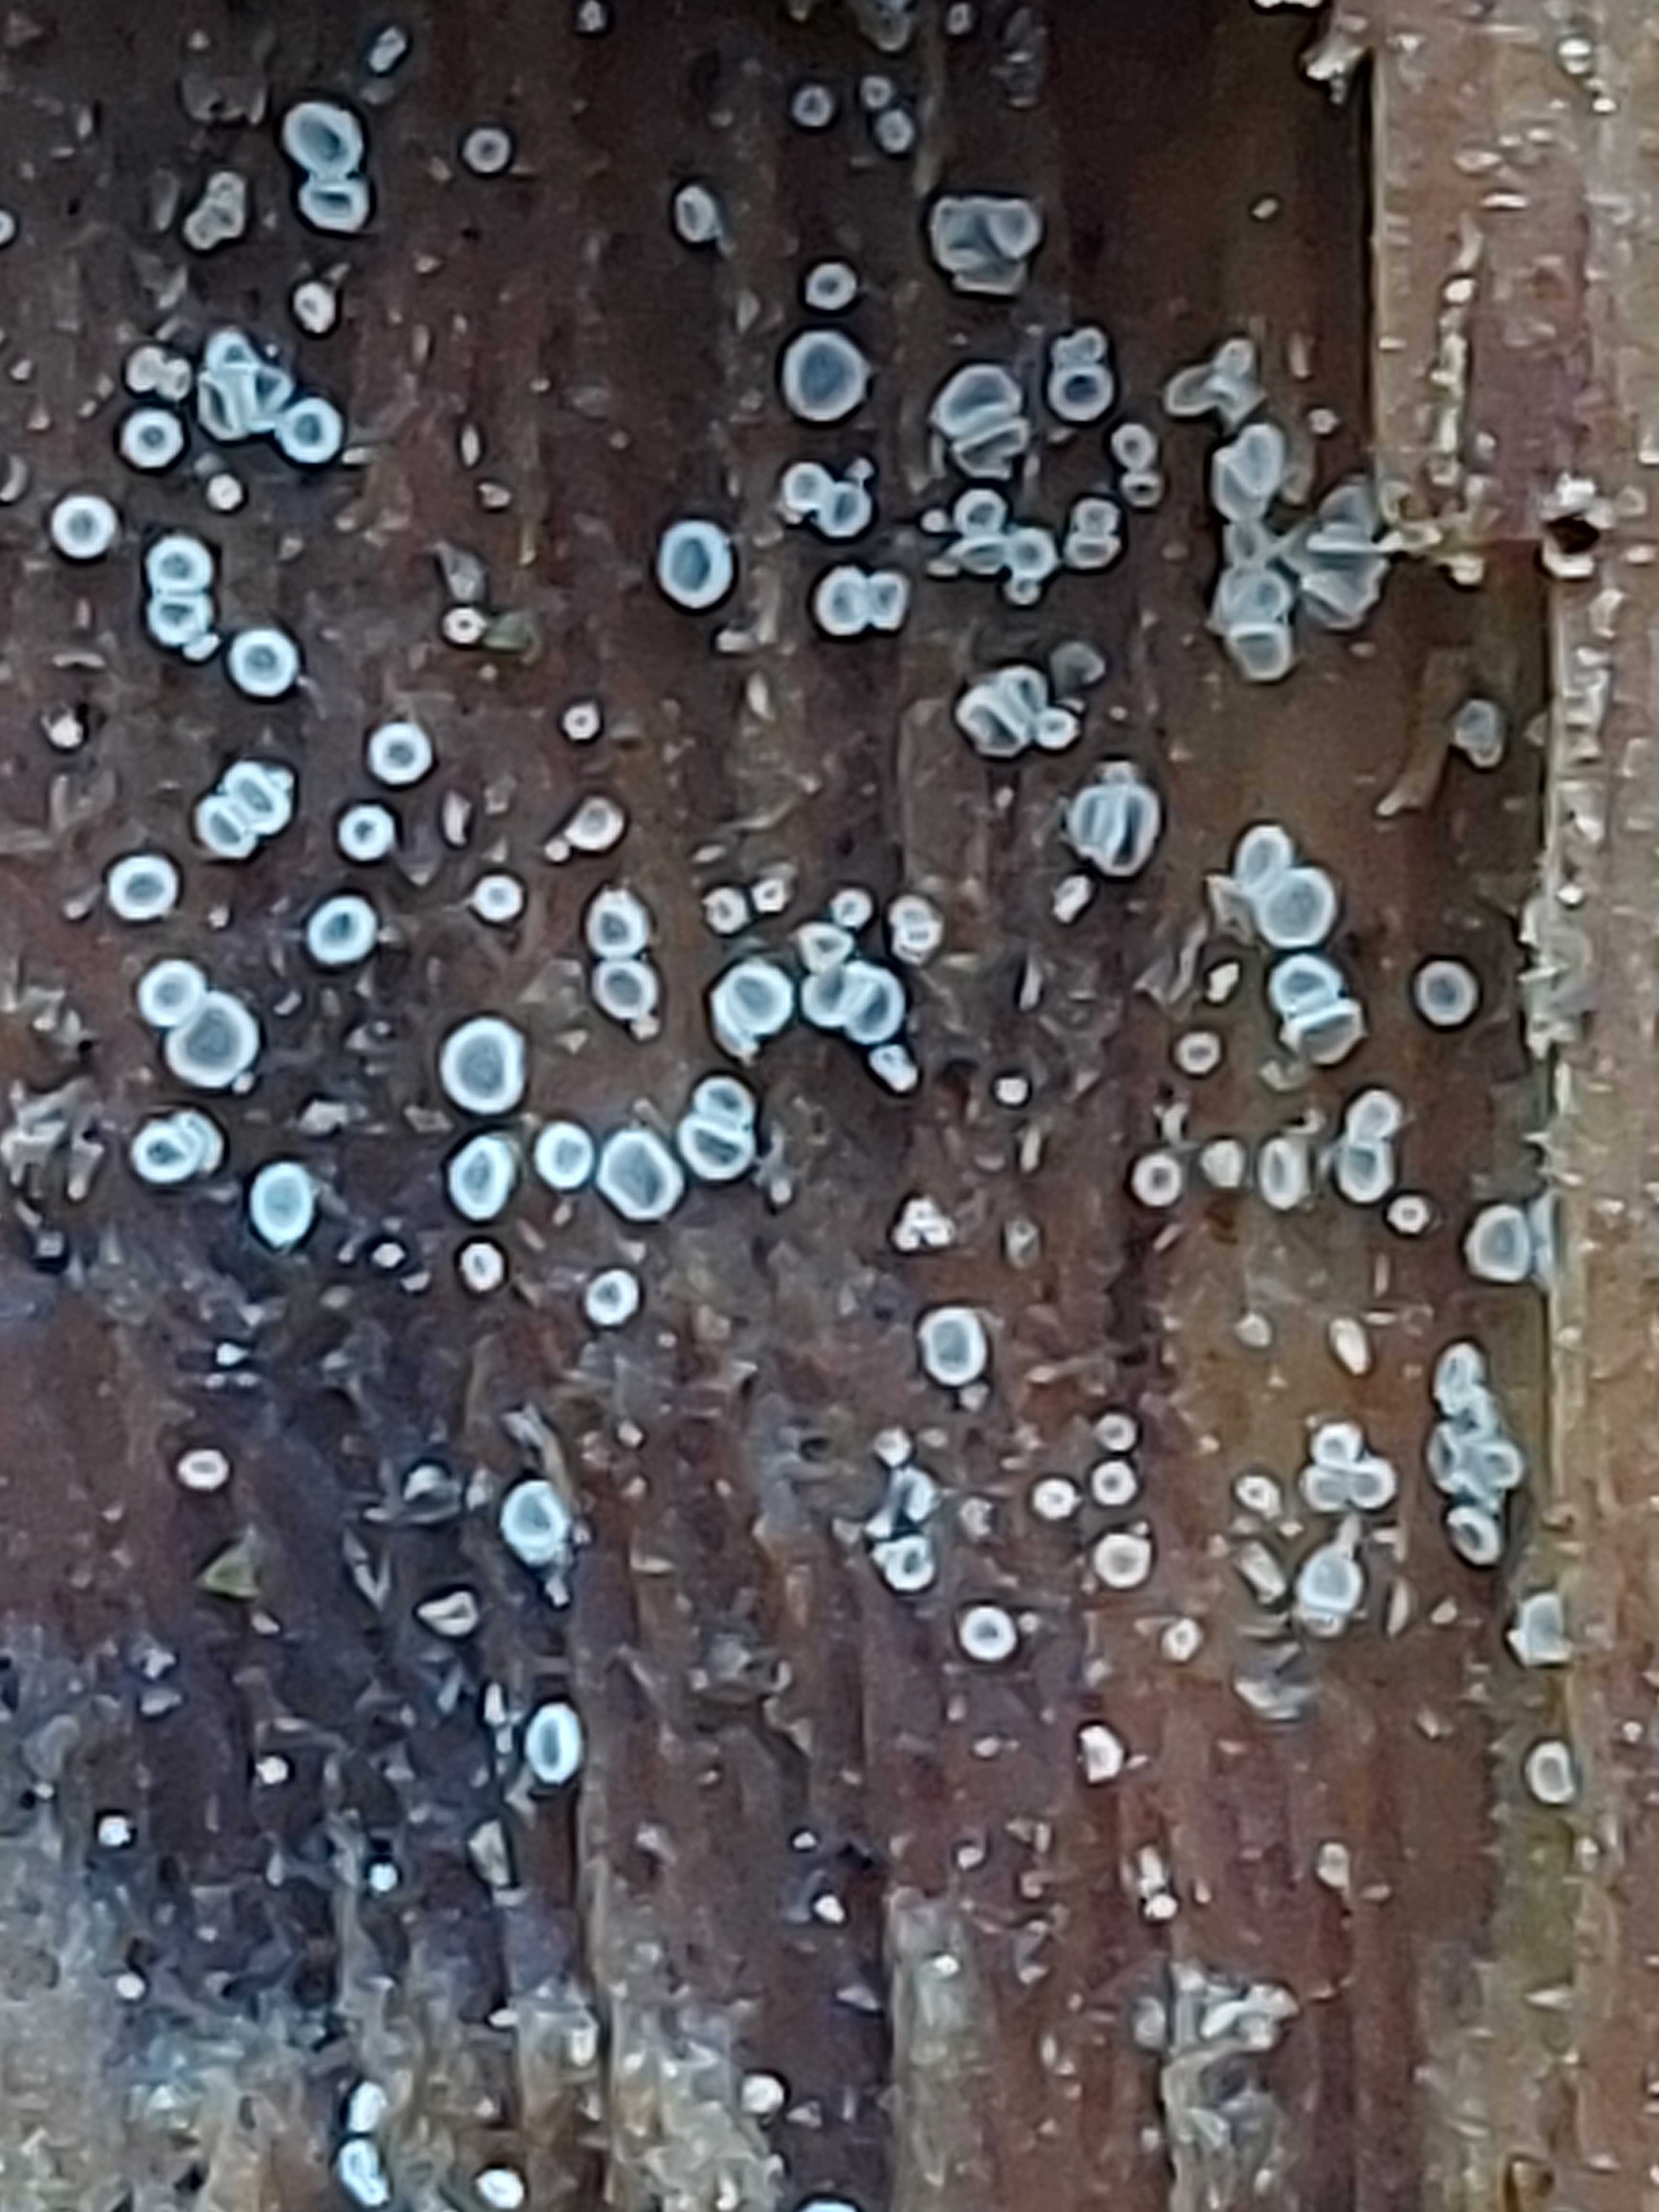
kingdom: Fungi
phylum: Ascomycota
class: Leotiomycetes
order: Helotiales
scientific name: Helotiales
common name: stilkskiveordenen
